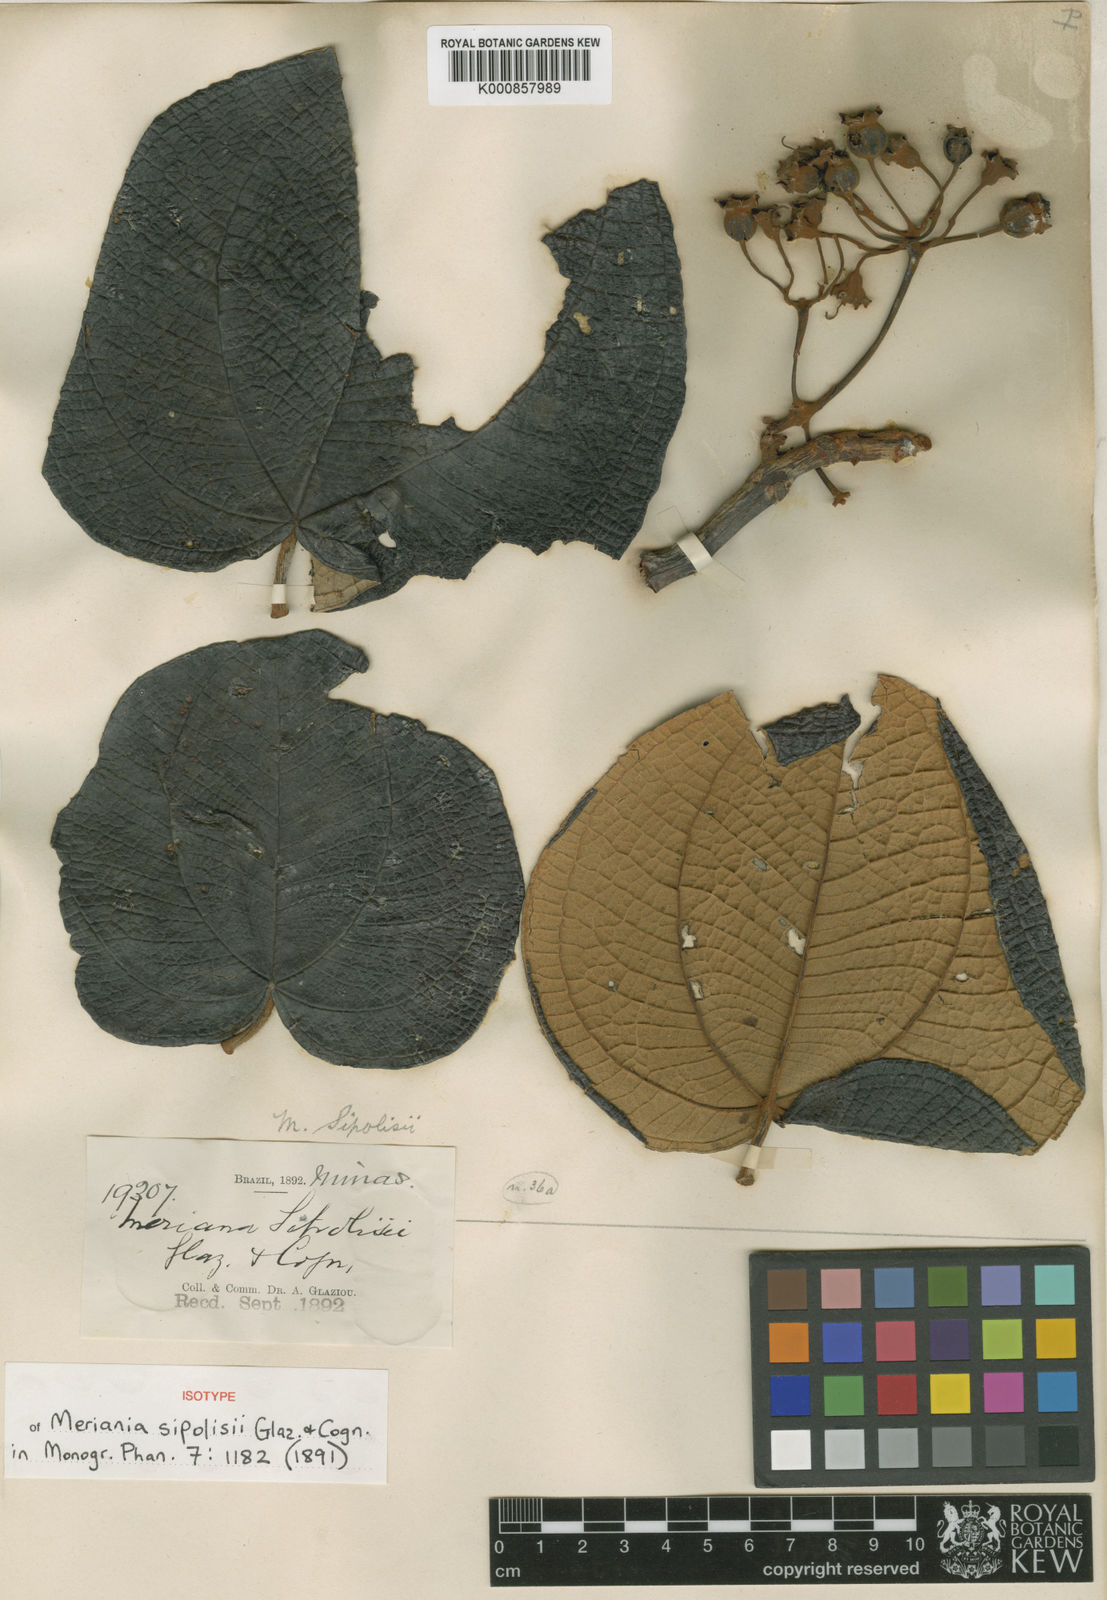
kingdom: Plantae
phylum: Tracheophyta
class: Magnoliopsida
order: Myrtales
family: Melastomataceae
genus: Merianthera
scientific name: Merianthera sipolisii
